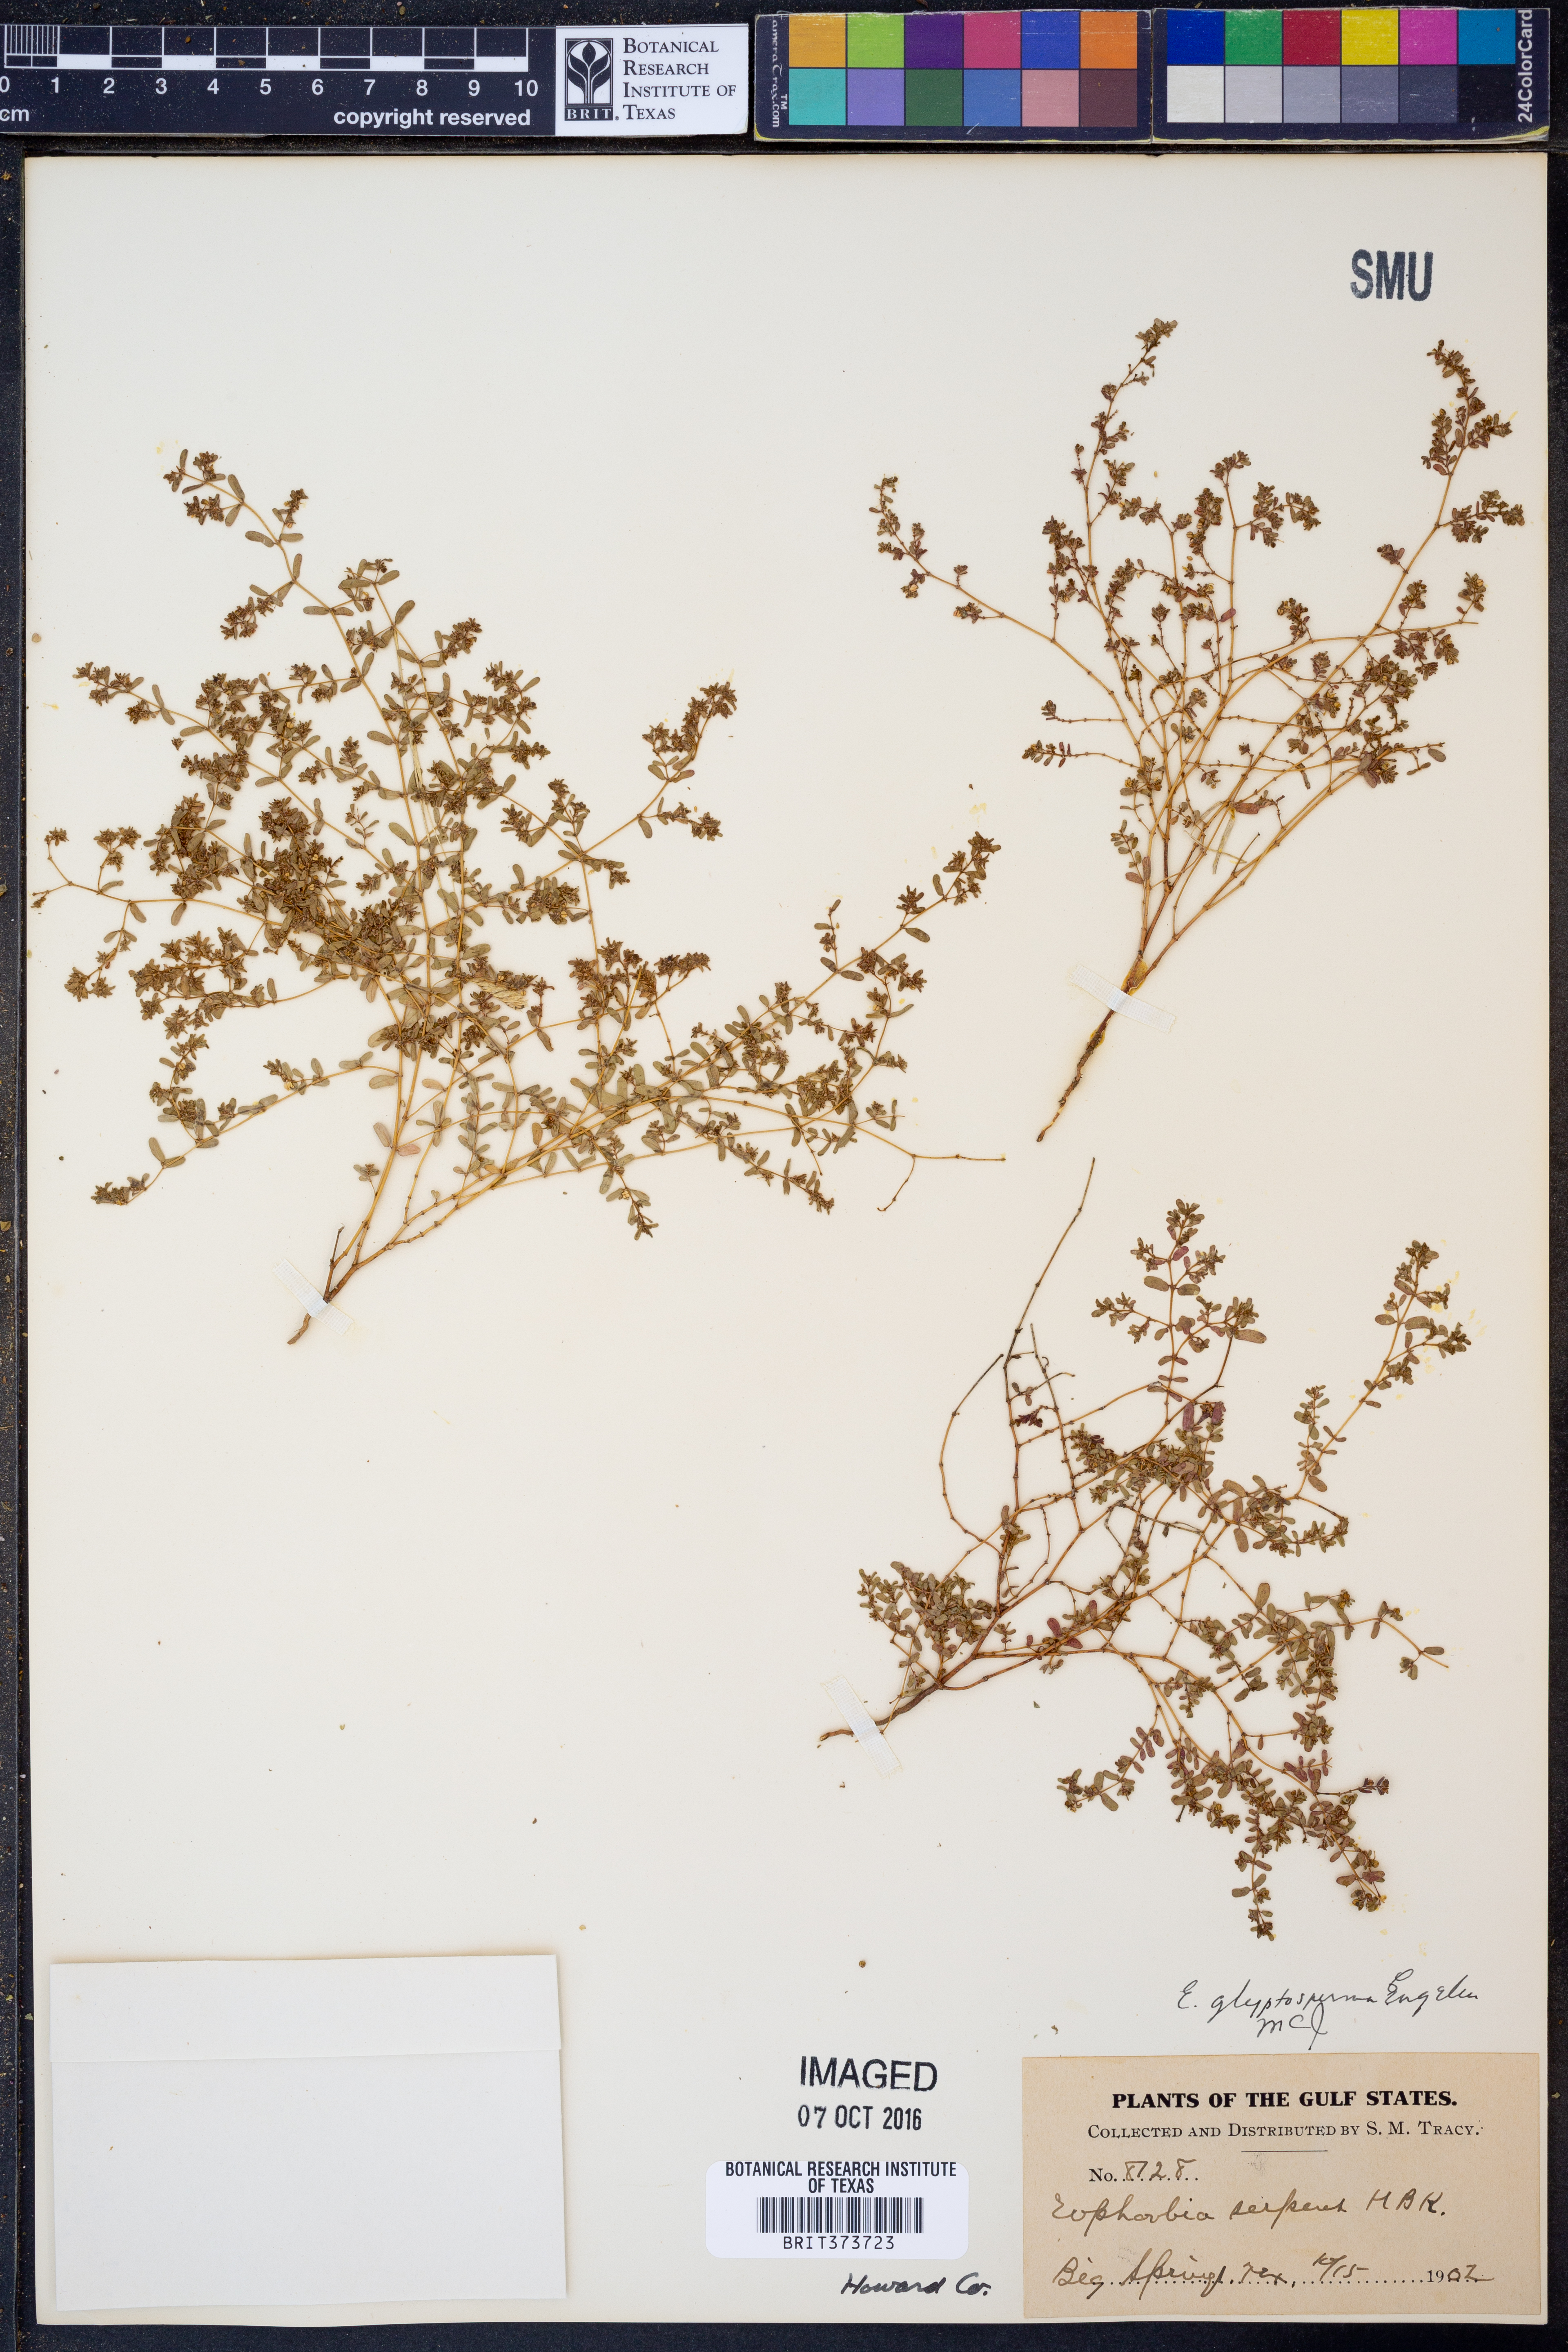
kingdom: Plantae
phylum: Tracheophyta
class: Magnoliopsida
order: Malpighiales
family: Euphorbiaceae
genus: Euphorbia
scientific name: Euphorbia glyptosperma
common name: Corrugate-seeded spurge
